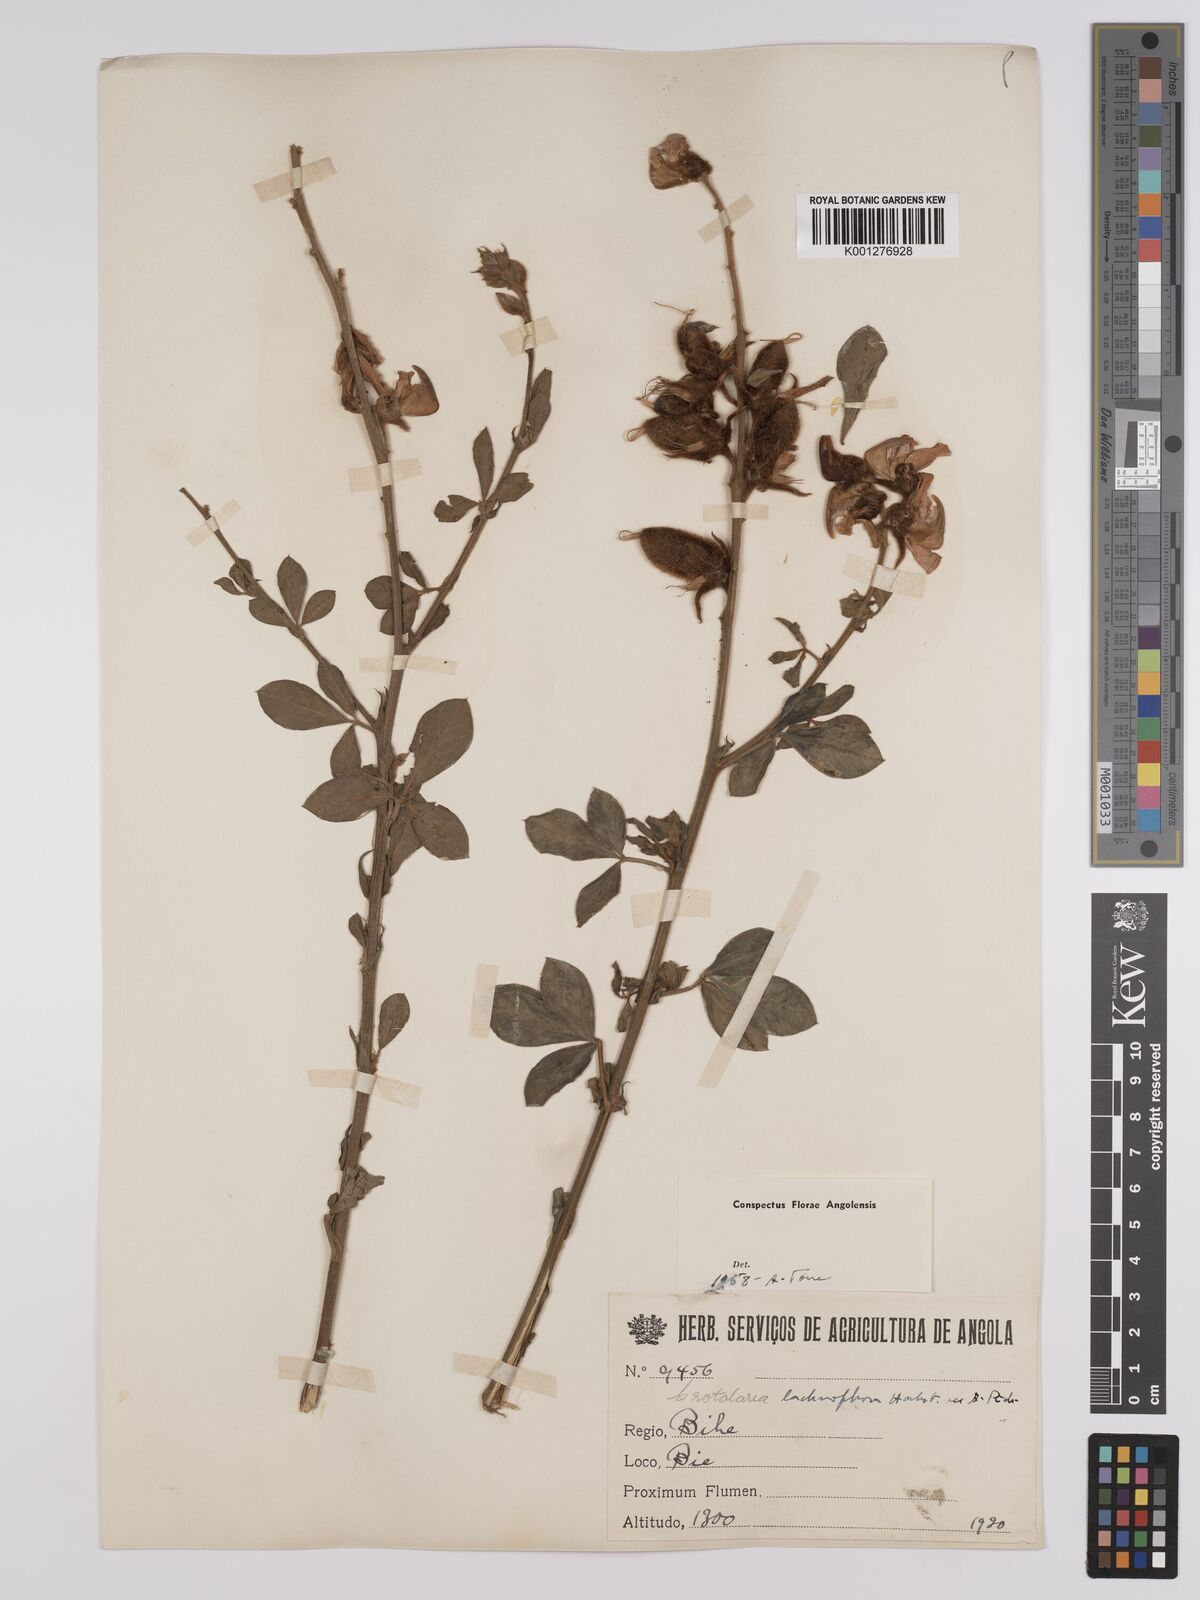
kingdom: Plantae
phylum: Tracheophyta
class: Magnoliopsida
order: Fabales
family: Fabaceae
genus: Crotalaria
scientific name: Crotalaria lachnophora
